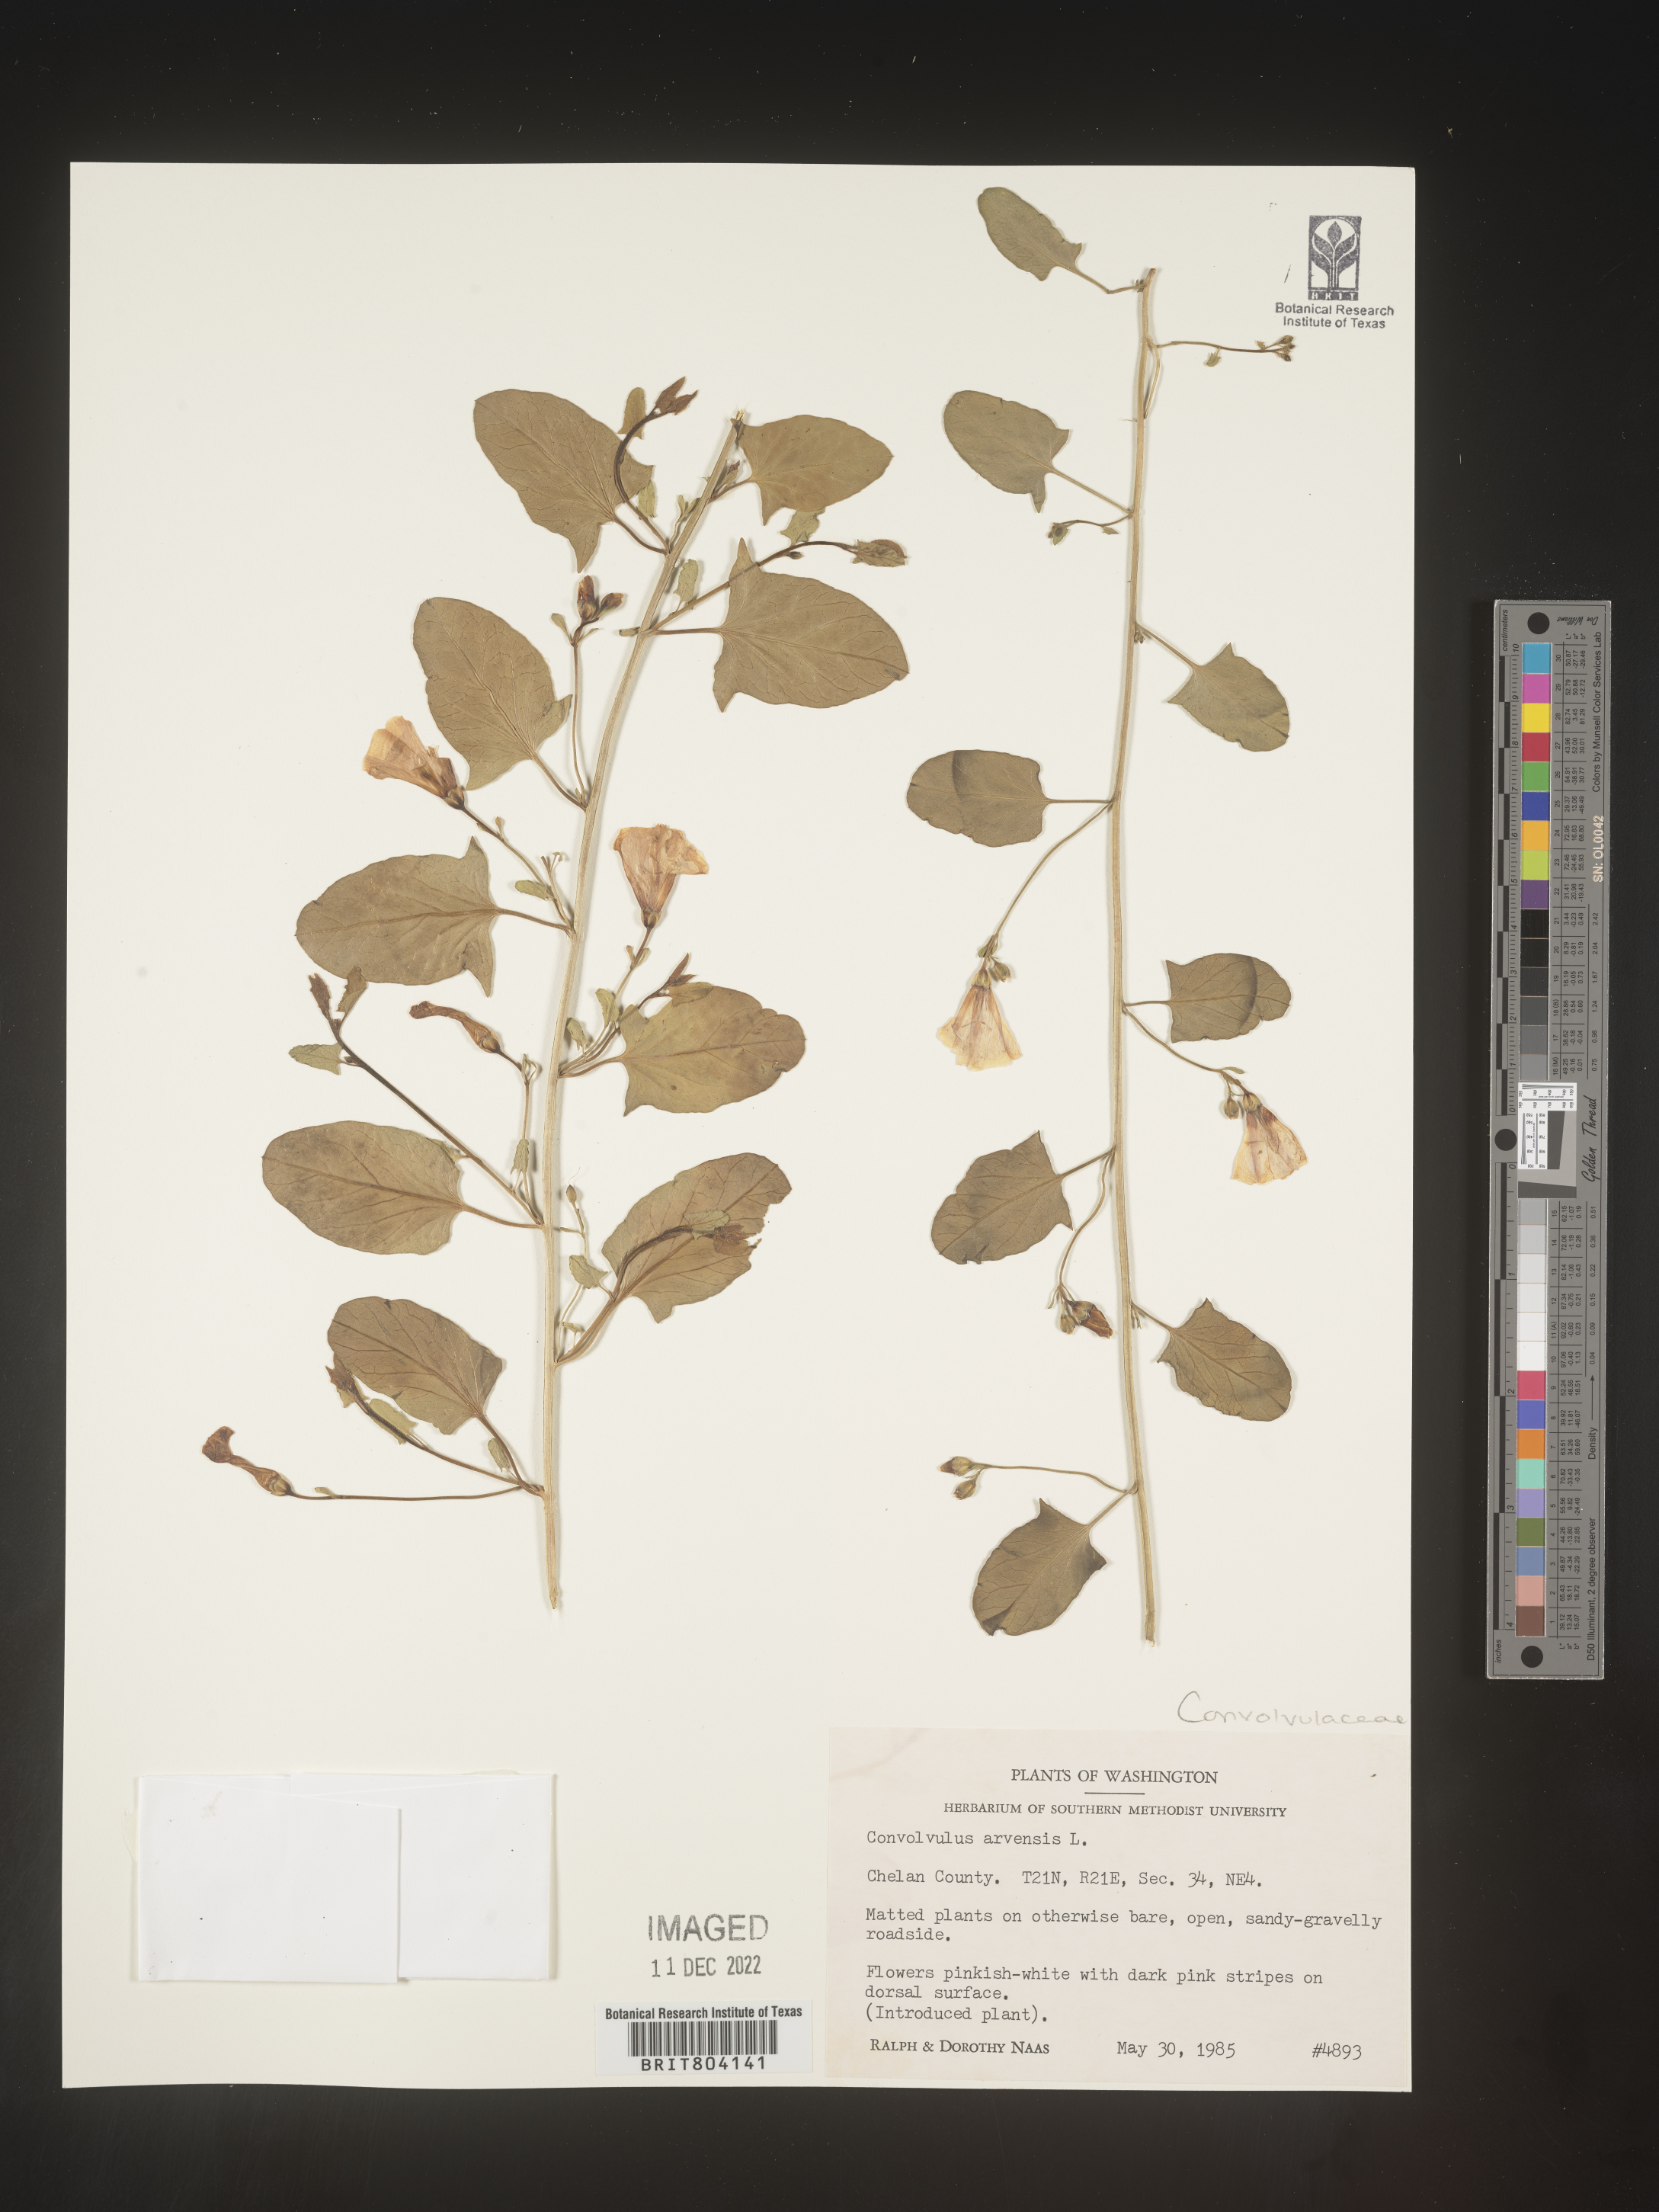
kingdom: Plantae
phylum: Tracheophyta
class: Magnoliopsida
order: Solanales
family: Convolvulaceae
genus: Convolvulus
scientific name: Convolvulus arvensis
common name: Field bindweed
